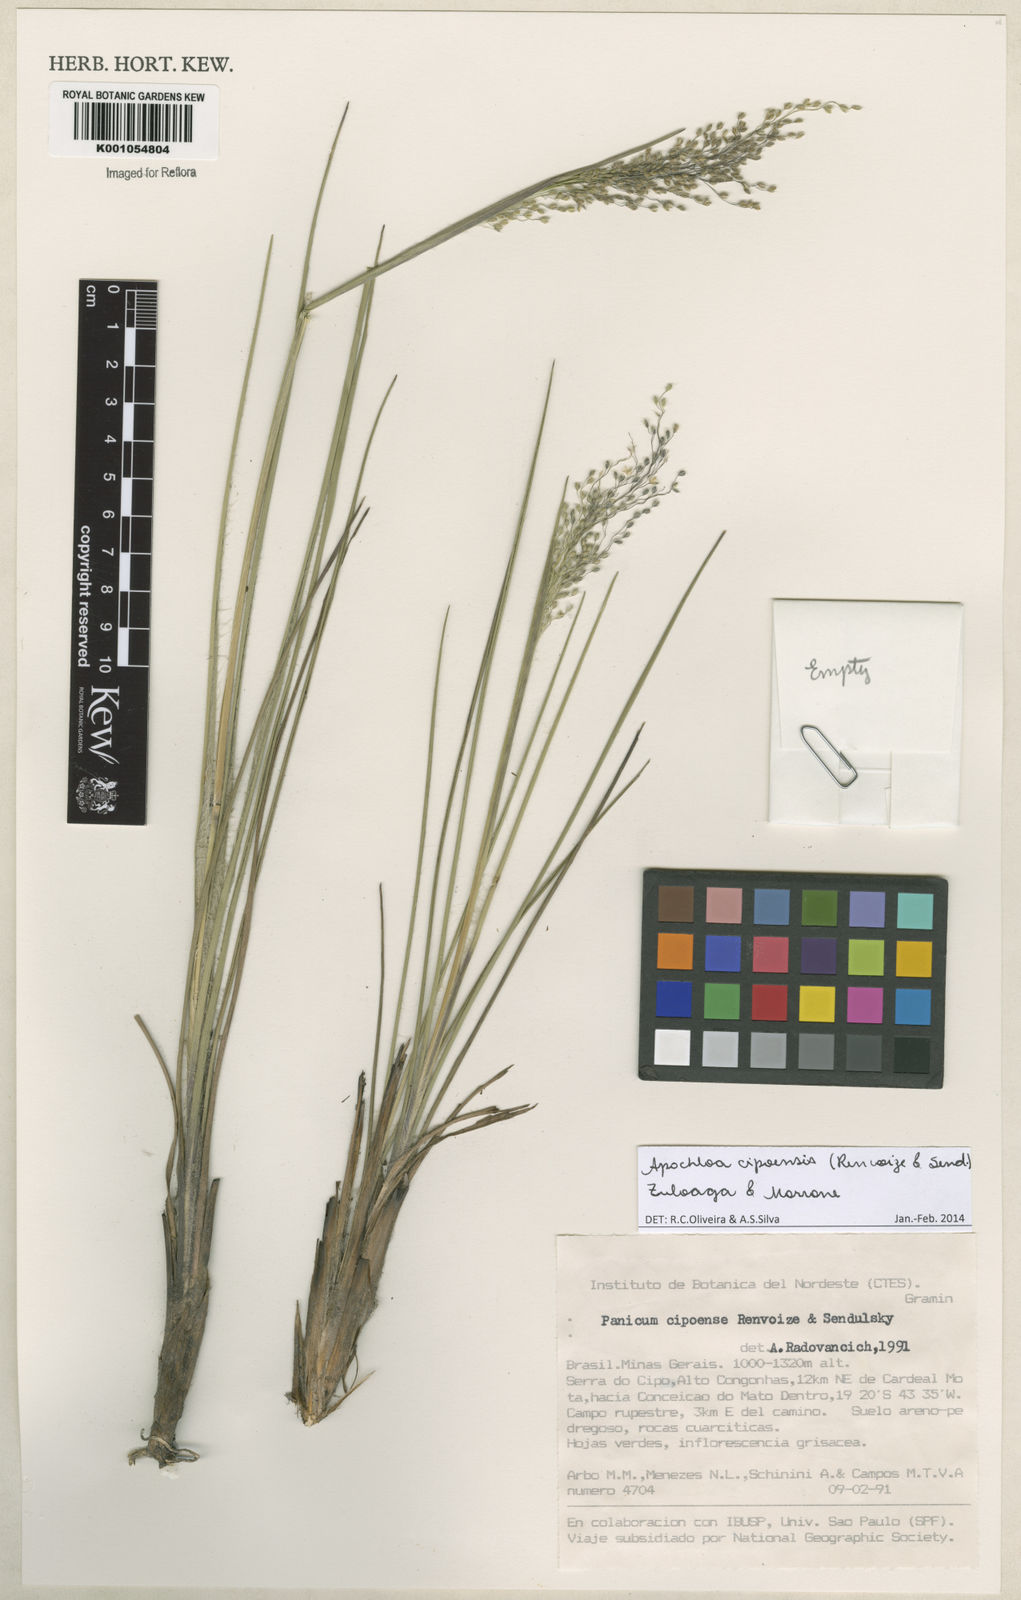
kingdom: Plantae
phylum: Tracheophyta
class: Liliopsida
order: Poales
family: Poaceae
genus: Apochloa
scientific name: Apochloa cipoensis
